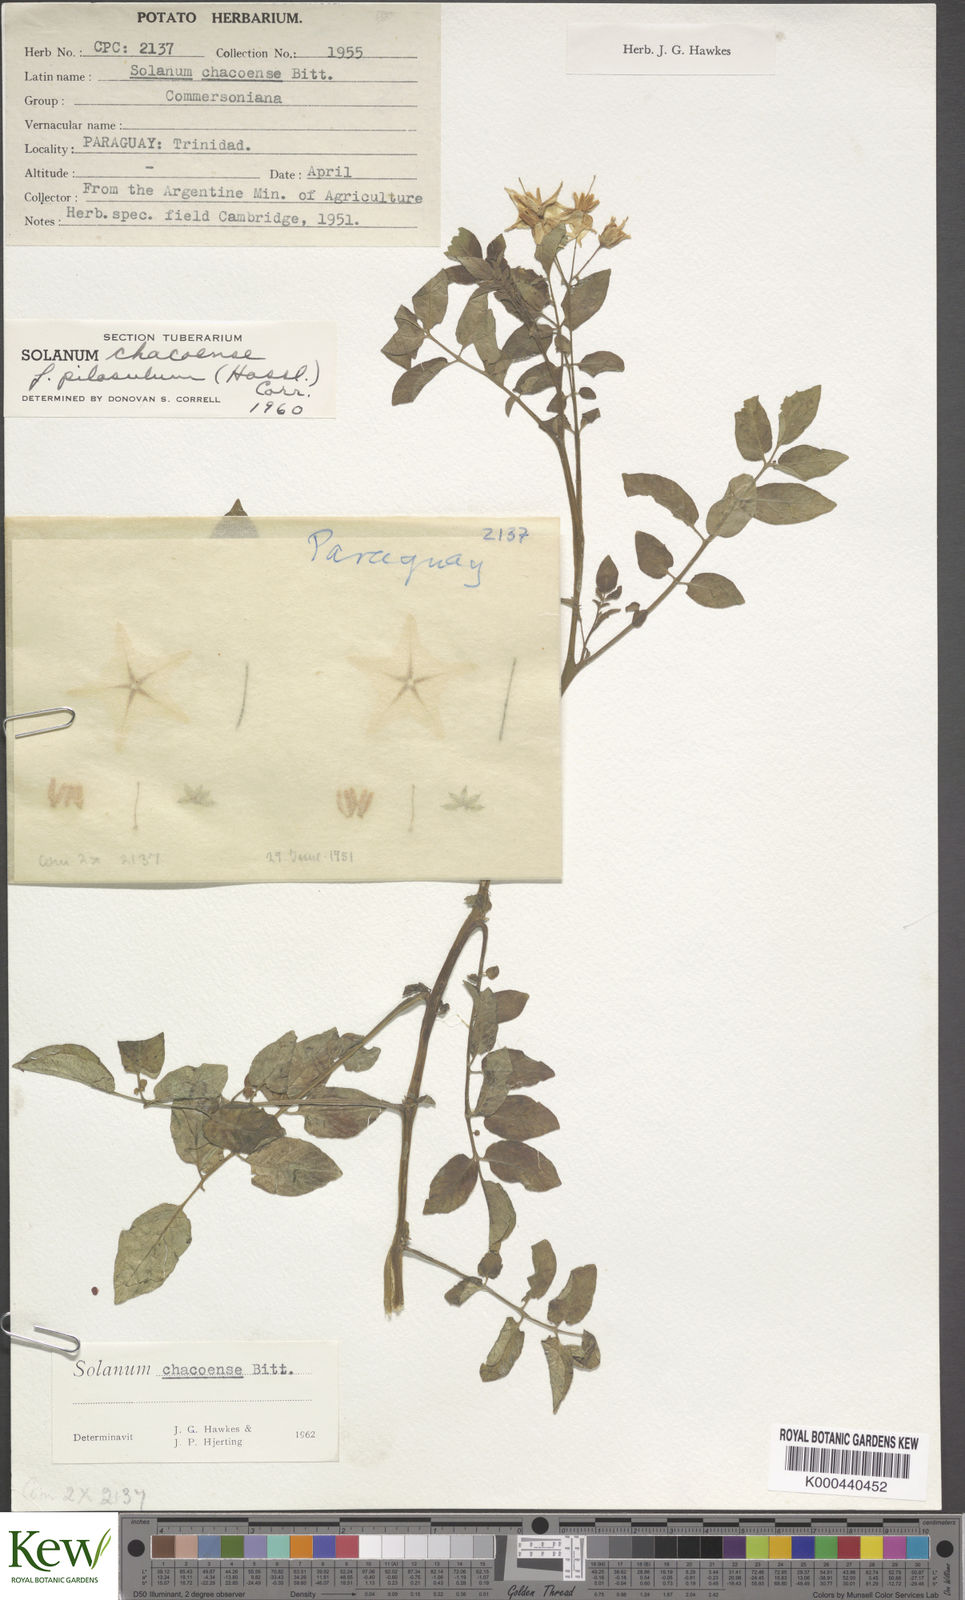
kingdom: Plantae
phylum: Tracheophyta
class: Magnoliopsida
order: Solanales
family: Solanaceae
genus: Solanum
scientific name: Solanum chacoense
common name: Chaco potato
